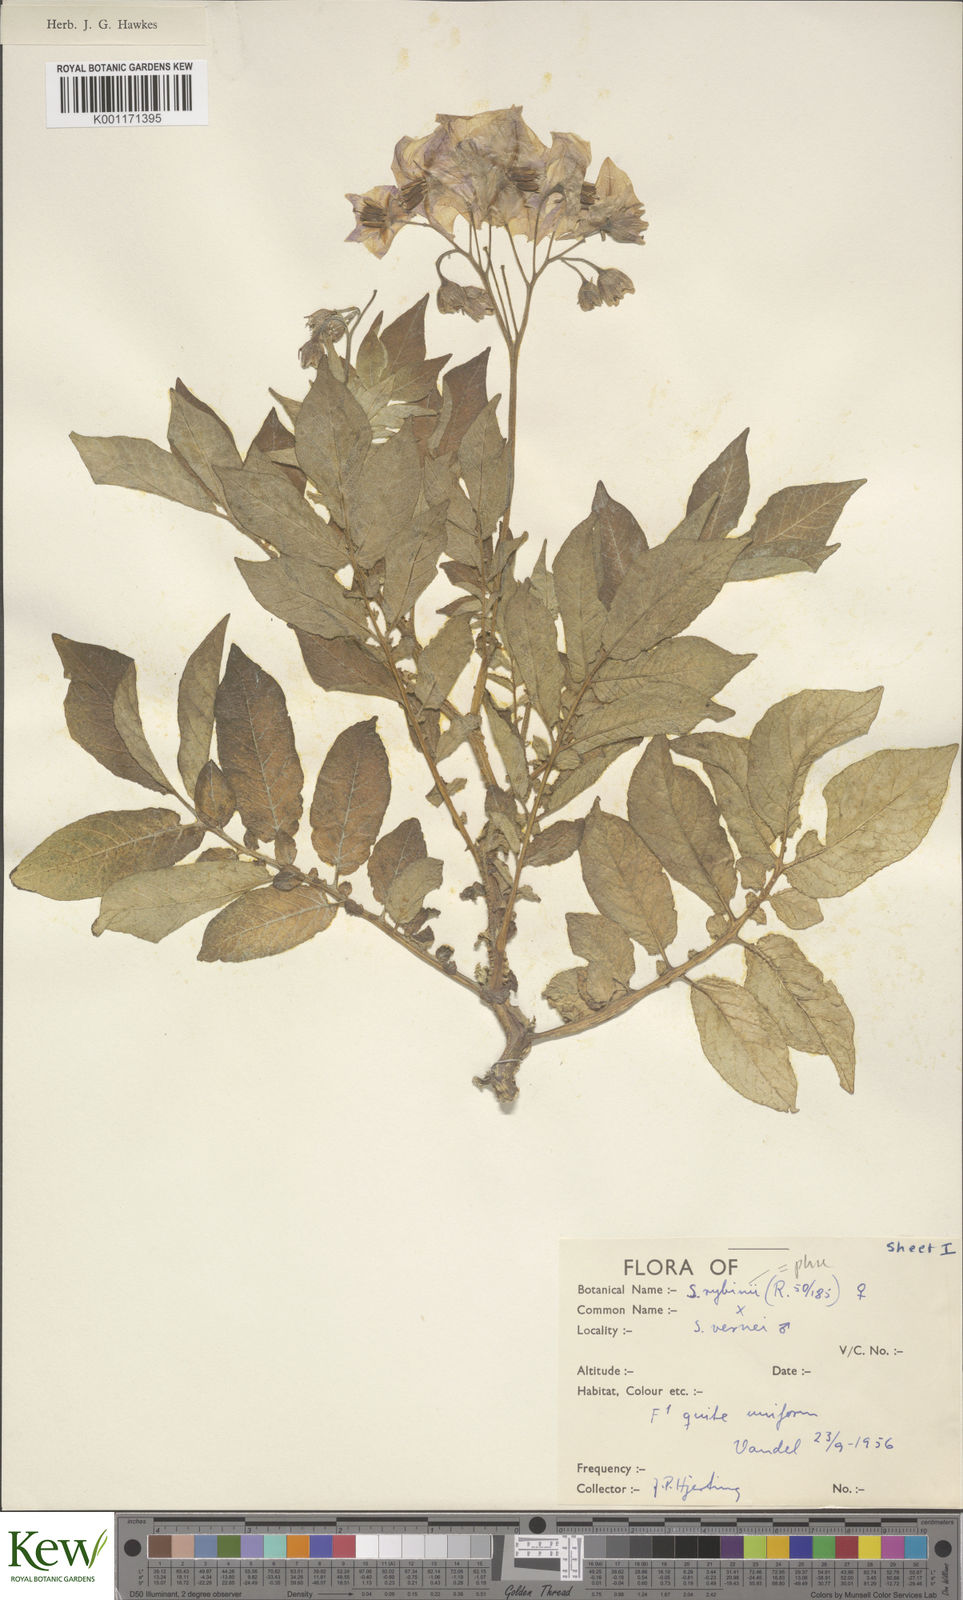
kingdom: Plantae
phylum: Tracheophyta
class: Magnoliopsida
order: Solanales
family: Solanaceae
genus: Solanum
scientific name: Solanum tuberosum
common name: Potato
